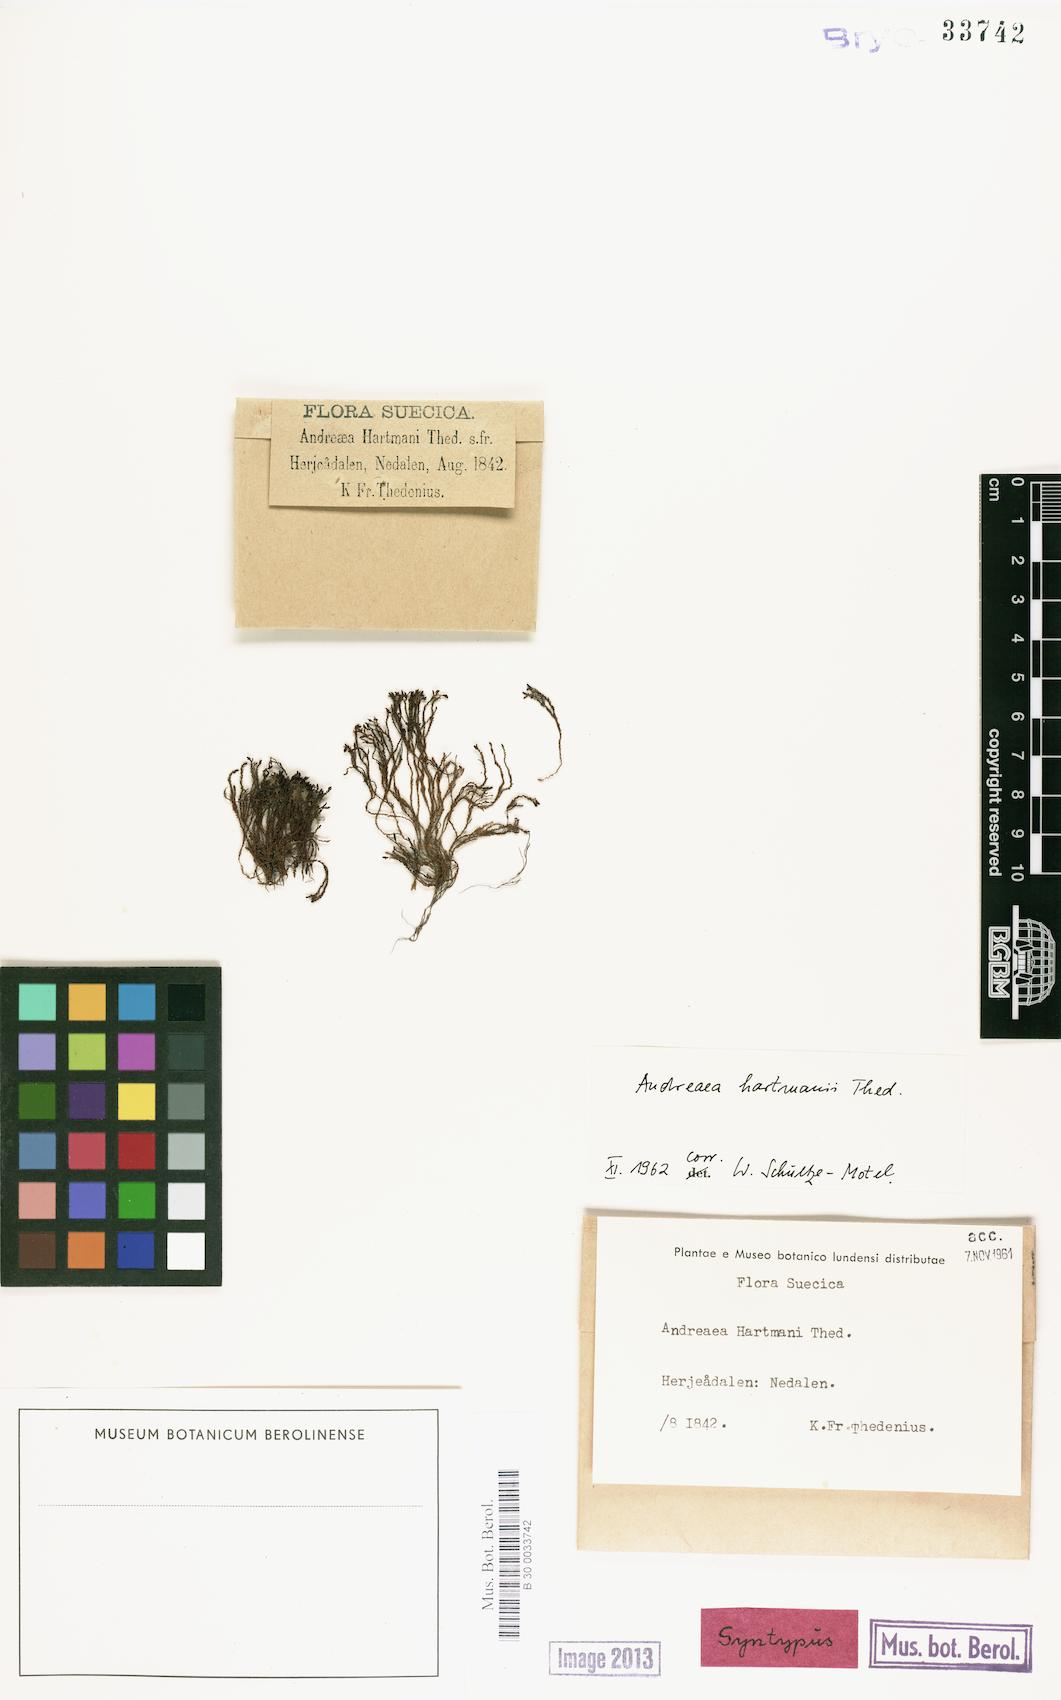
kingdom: Plantae
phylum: Bryophyta
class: Andreaeopsida
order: Andreaeales
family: Andreaeaceae
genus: Andreaea
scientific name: Andreaea alpina
